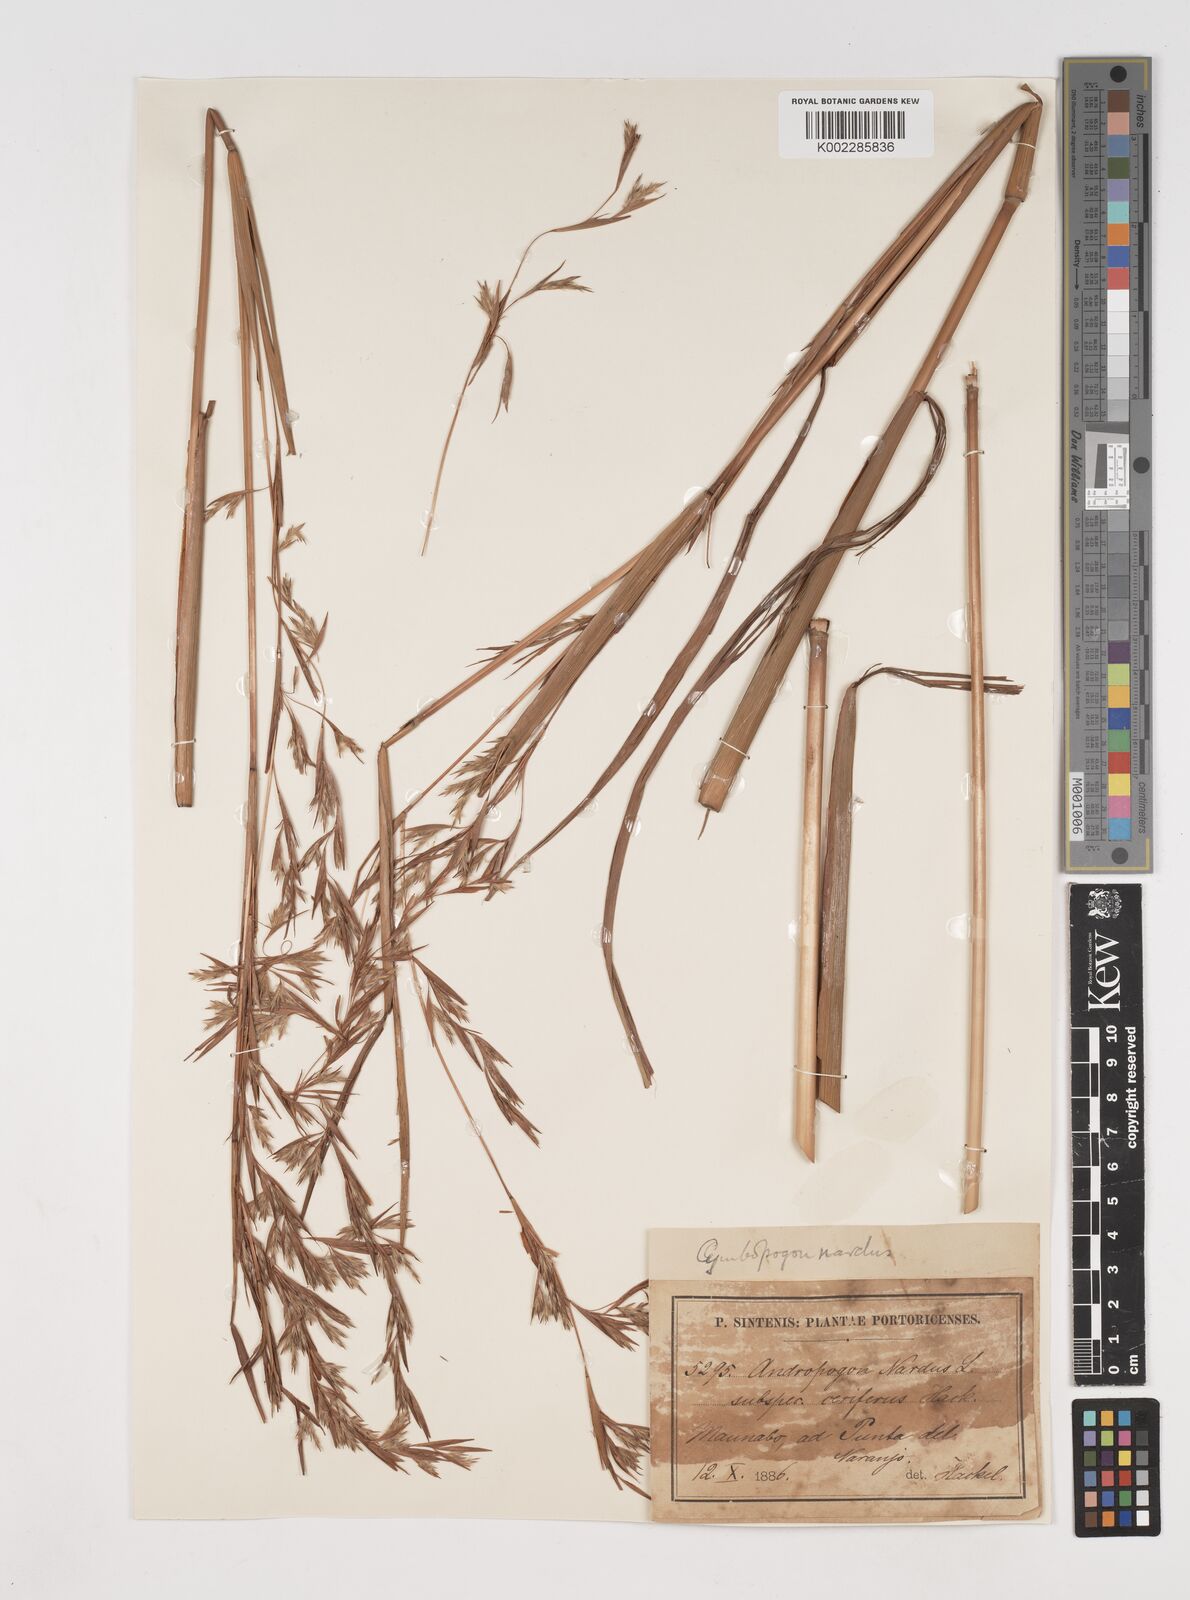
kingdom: Plantae
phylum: Tracheophyta
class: Liliopsida
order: Poales
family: Poaceae
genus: Cymbopogon
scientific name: Cymbopogon citratus
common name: Lemon grass
